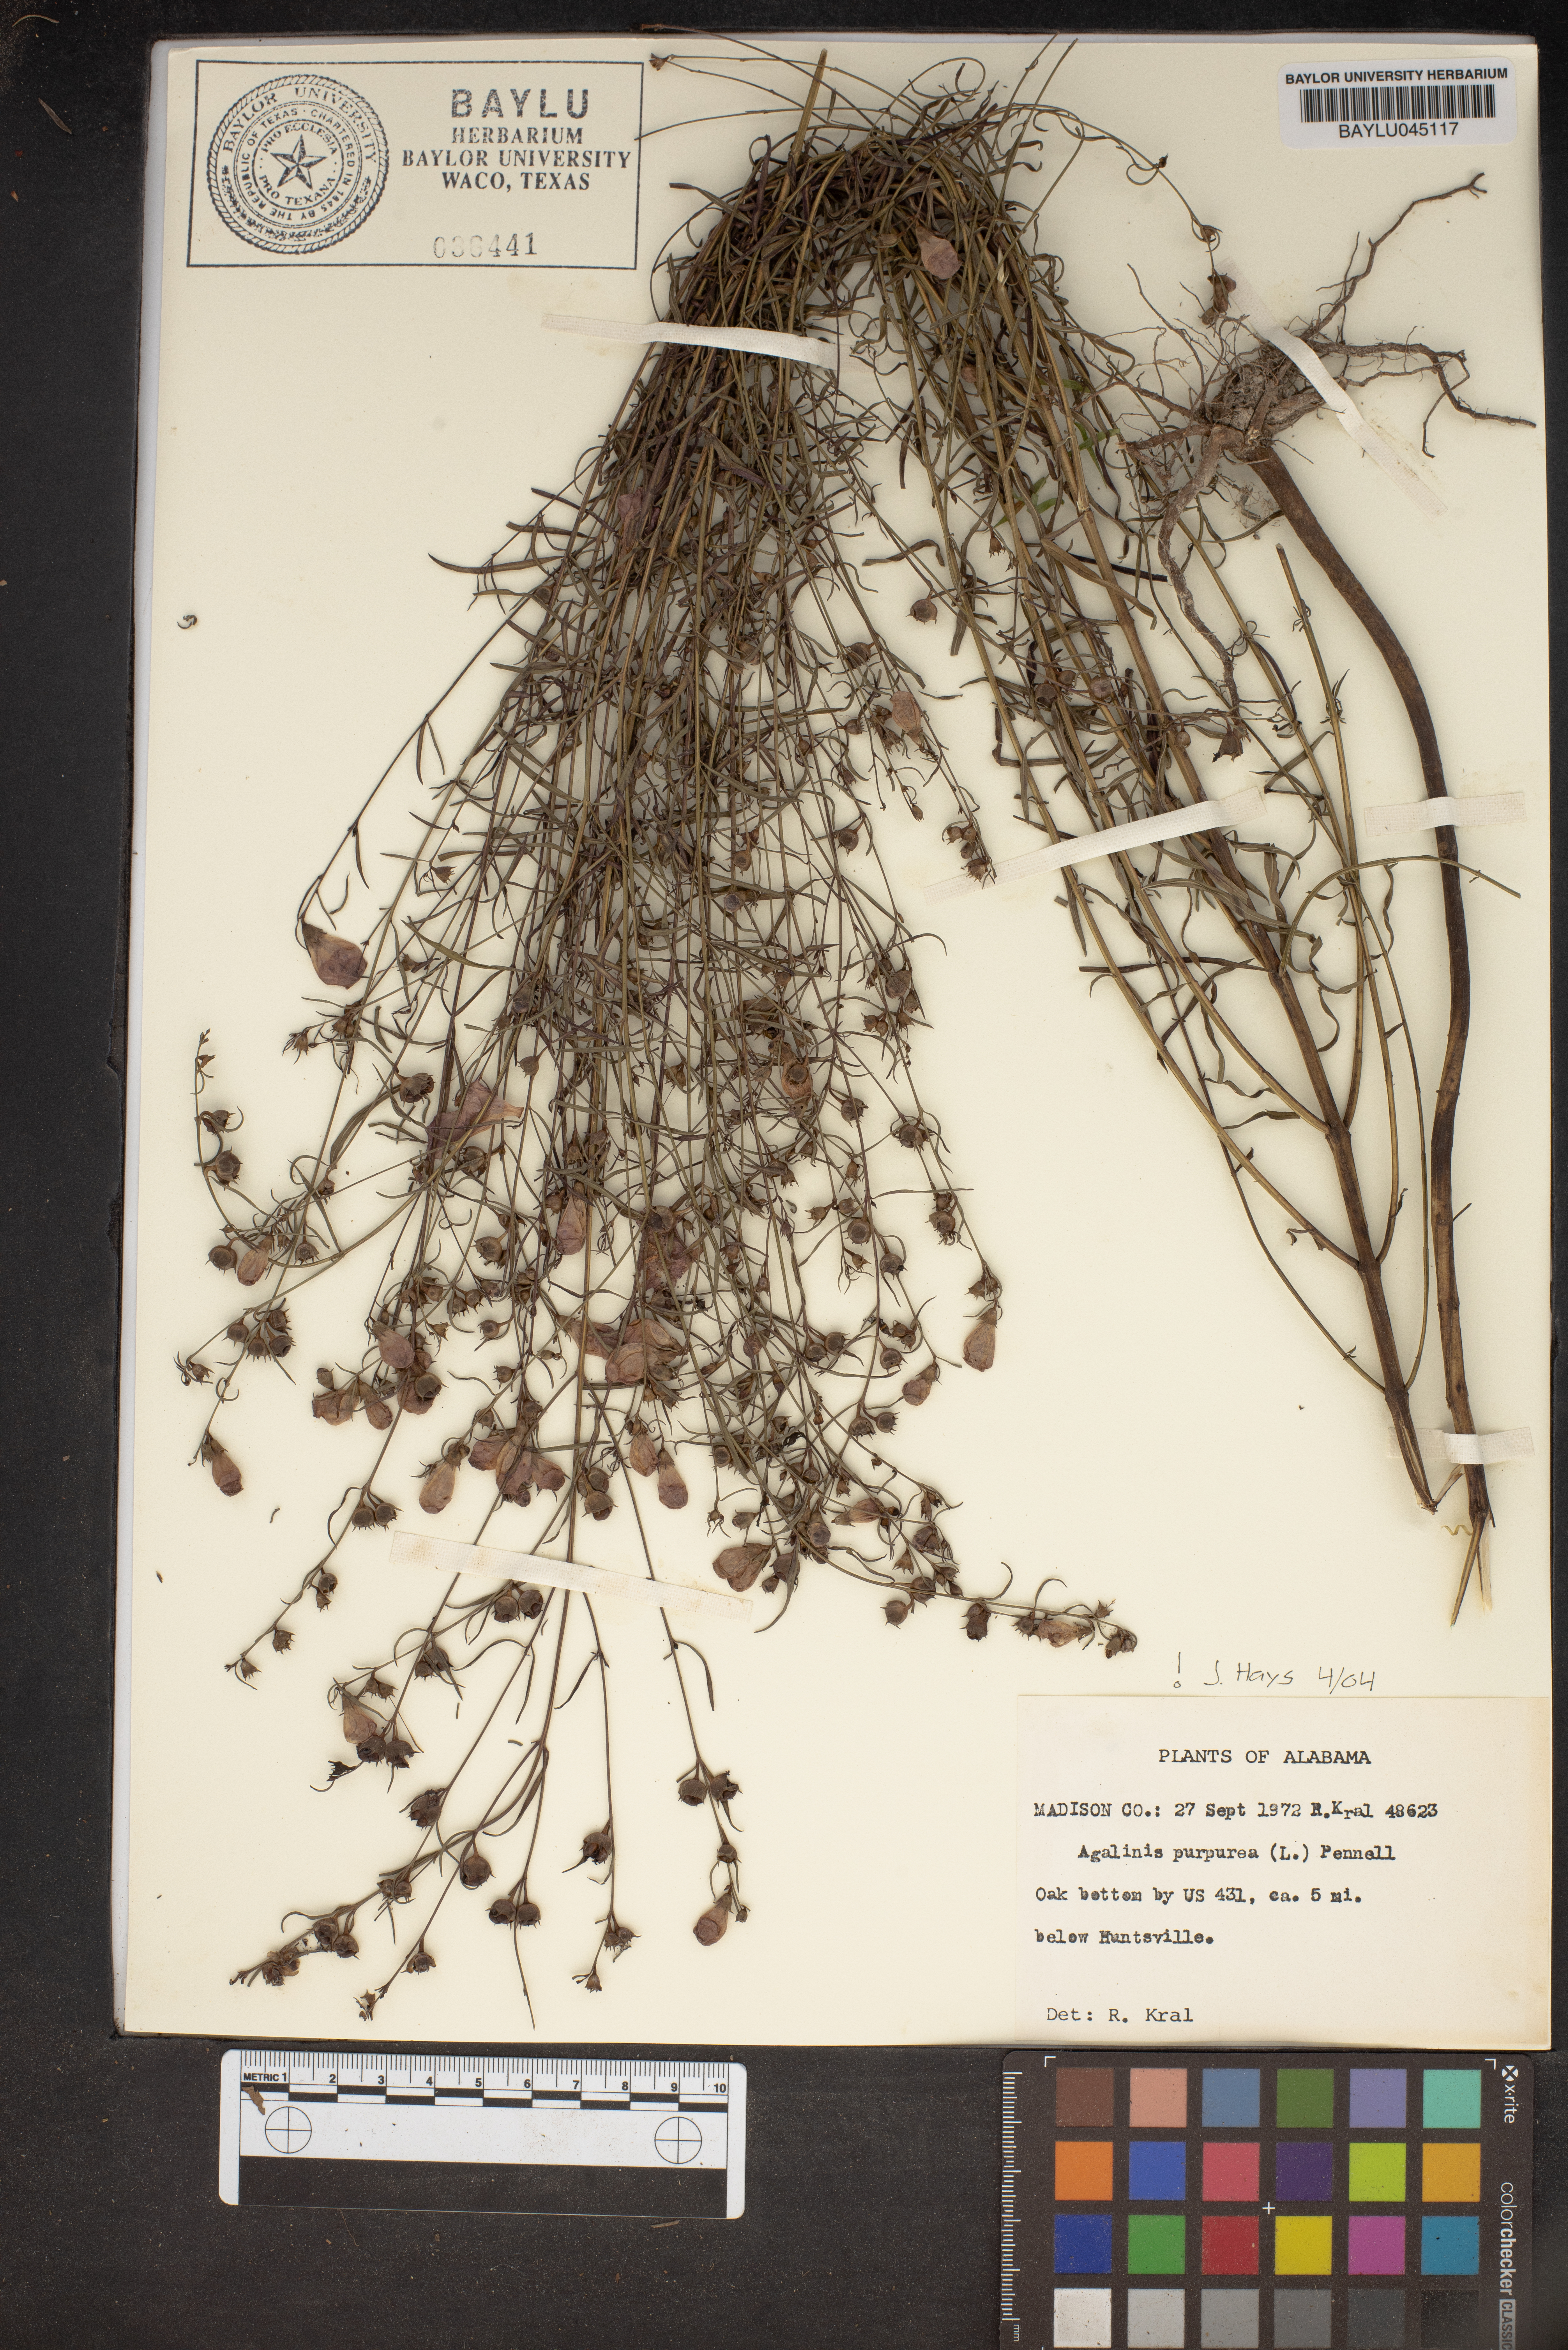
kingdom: Plantae
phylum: Tracheophyta
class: Magnoliopsida
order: Lamiales
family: Orobanchaceae
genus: Agalinis
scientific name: Agalinis purpurea
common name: Purple false foxglove
